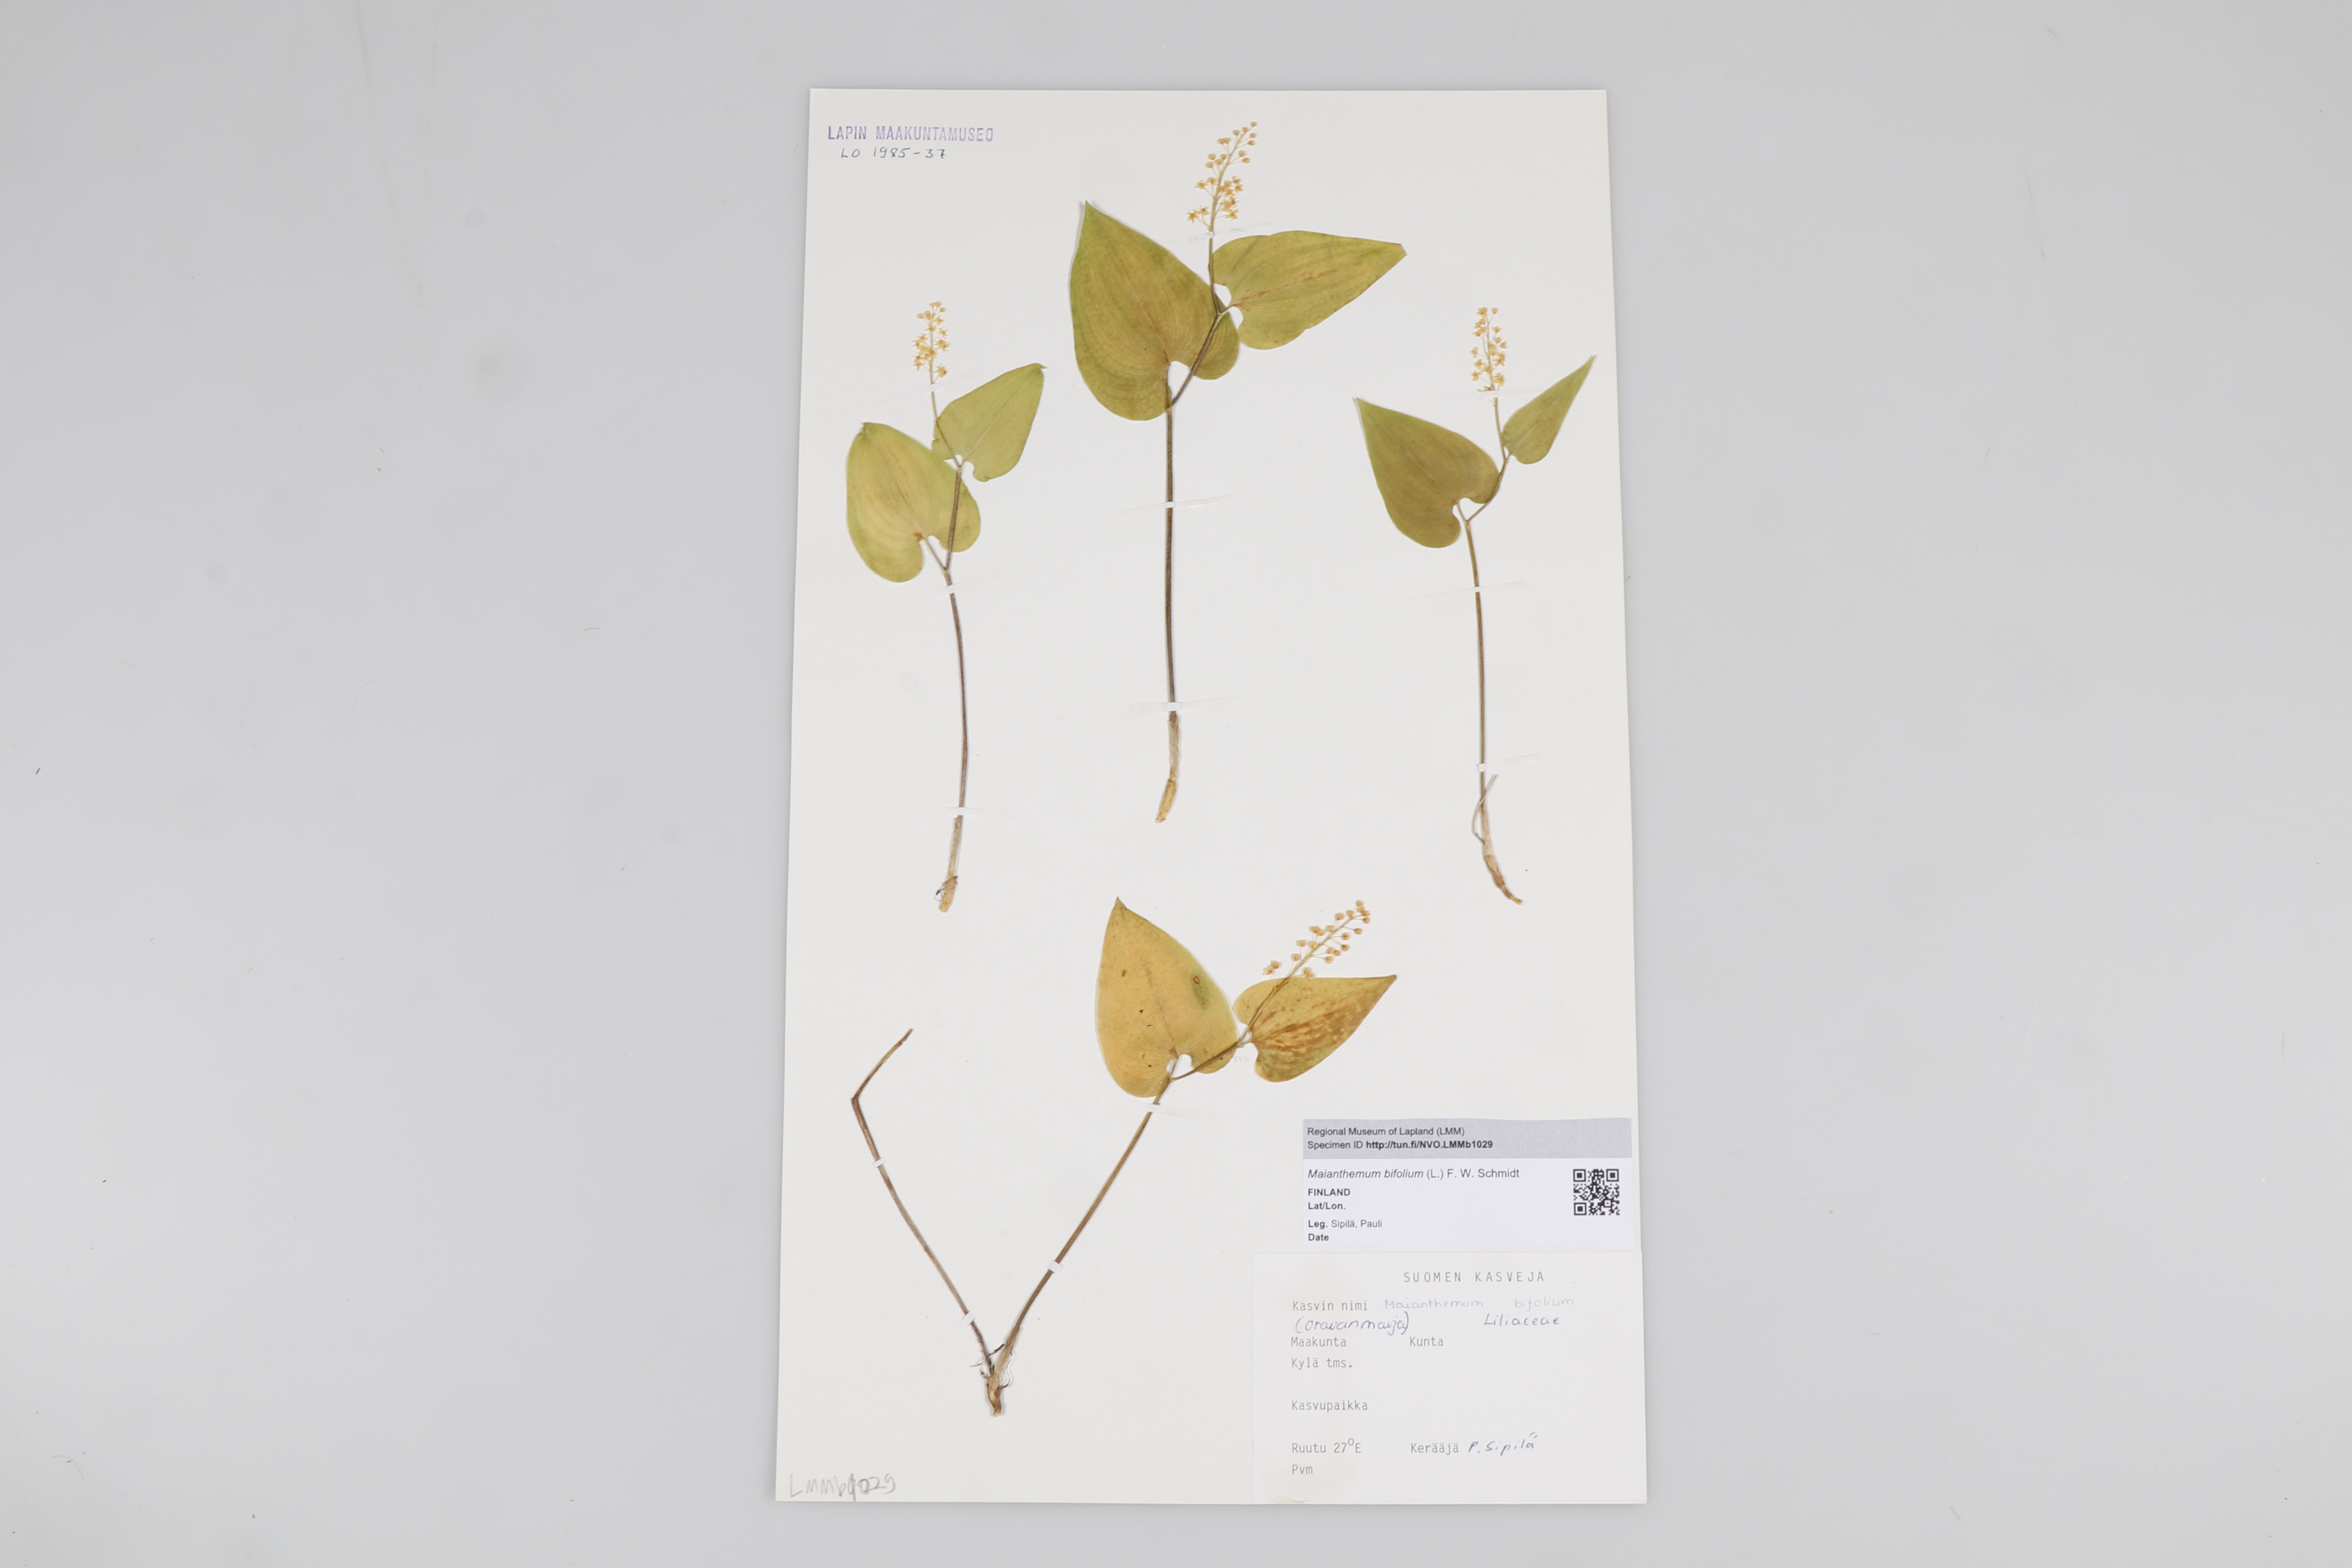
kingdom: Plantae
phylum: Tracheophyta
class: Liliopsida
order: Asparagales
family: Asparagaceae
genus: Maianthemum
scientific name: Maianthemum bifolium
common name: May lily
